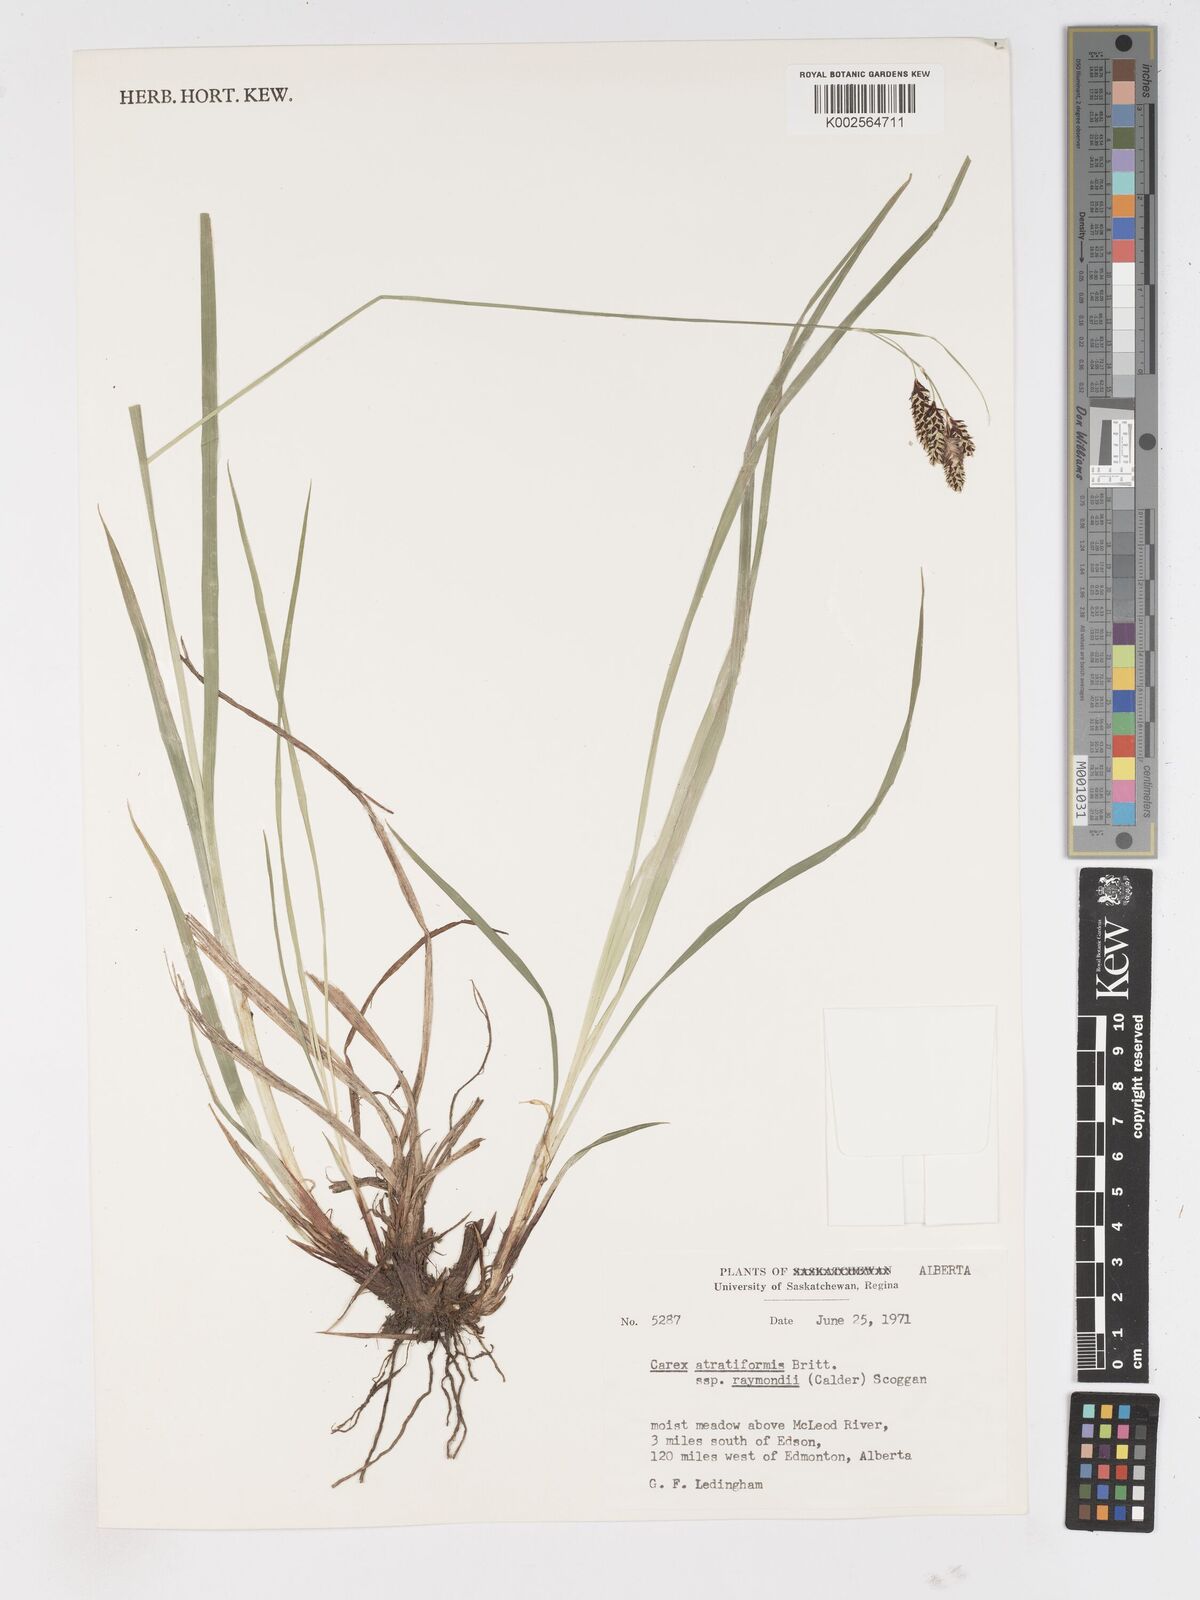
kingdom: Plantae
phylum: Tracheophyta
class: Liliopsida
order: Poales
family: Cyperaceae
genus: Carex
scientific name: Carex atratiformis
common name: Black sedge
